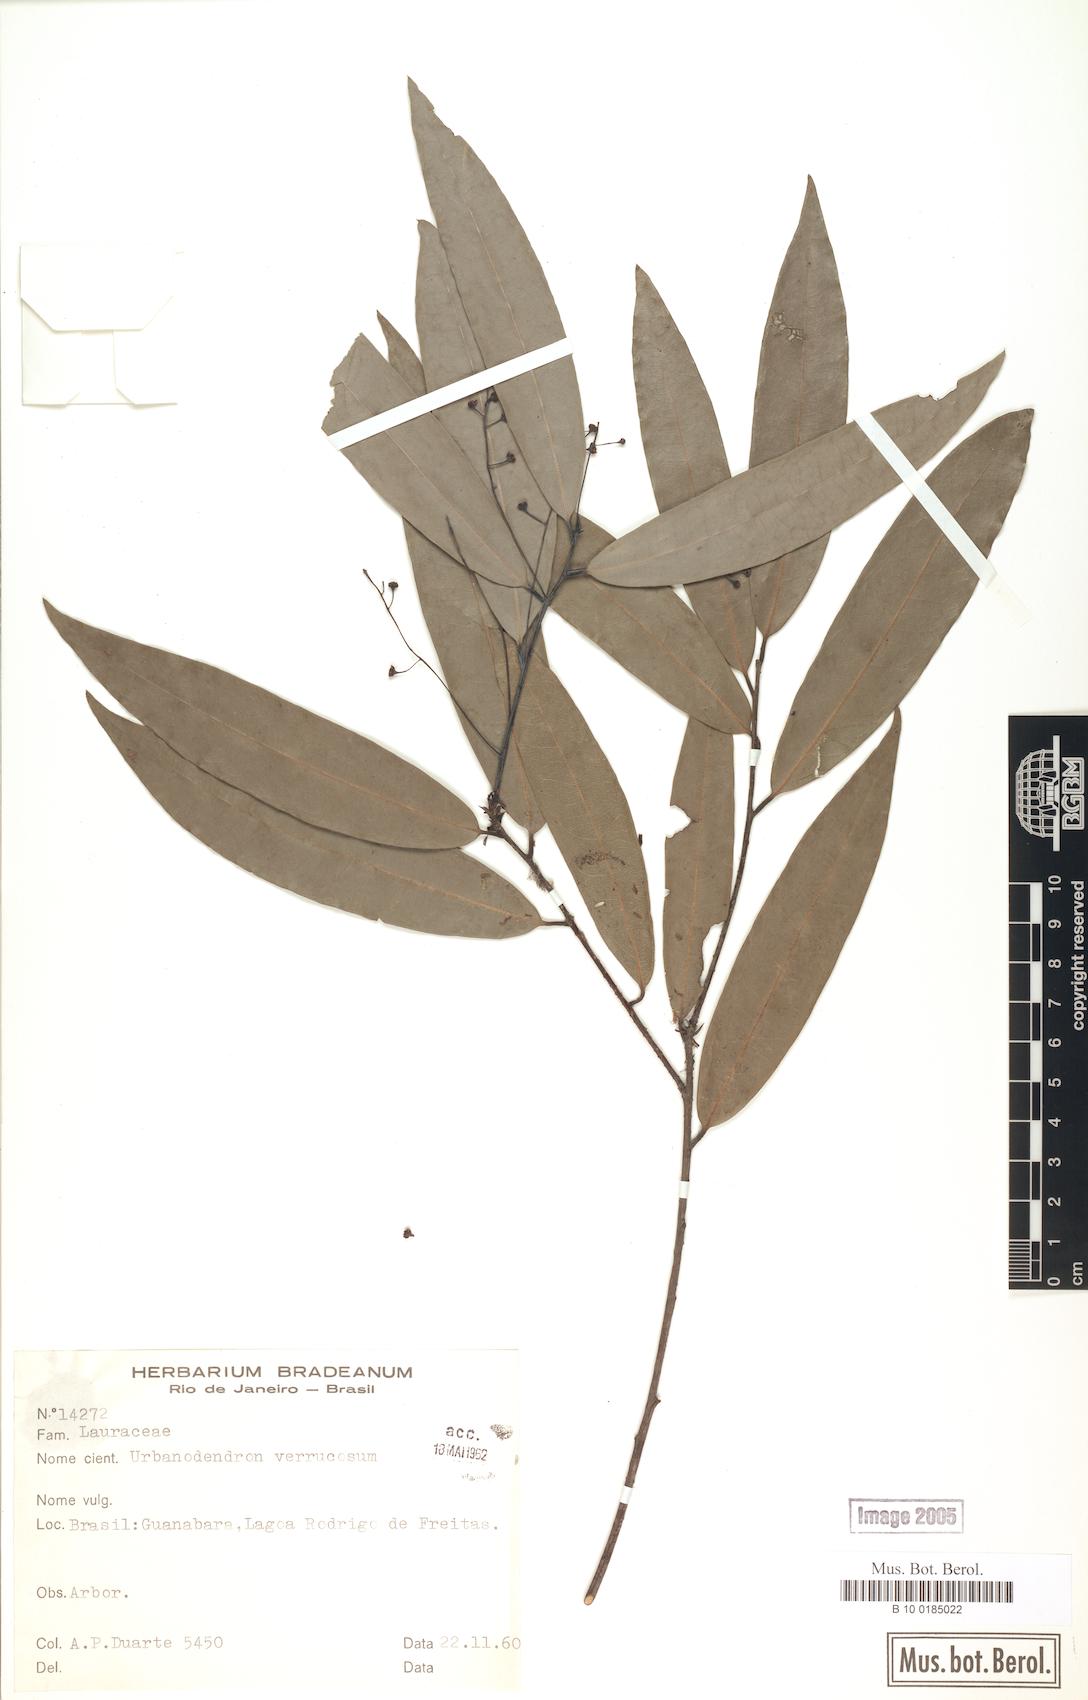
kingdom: Plantae
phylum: Tracheophyta
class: Magnoliopsida
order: Laurales
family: Lauraceae
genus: Urbanodendron
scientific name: Urbanodendron verrucosum
